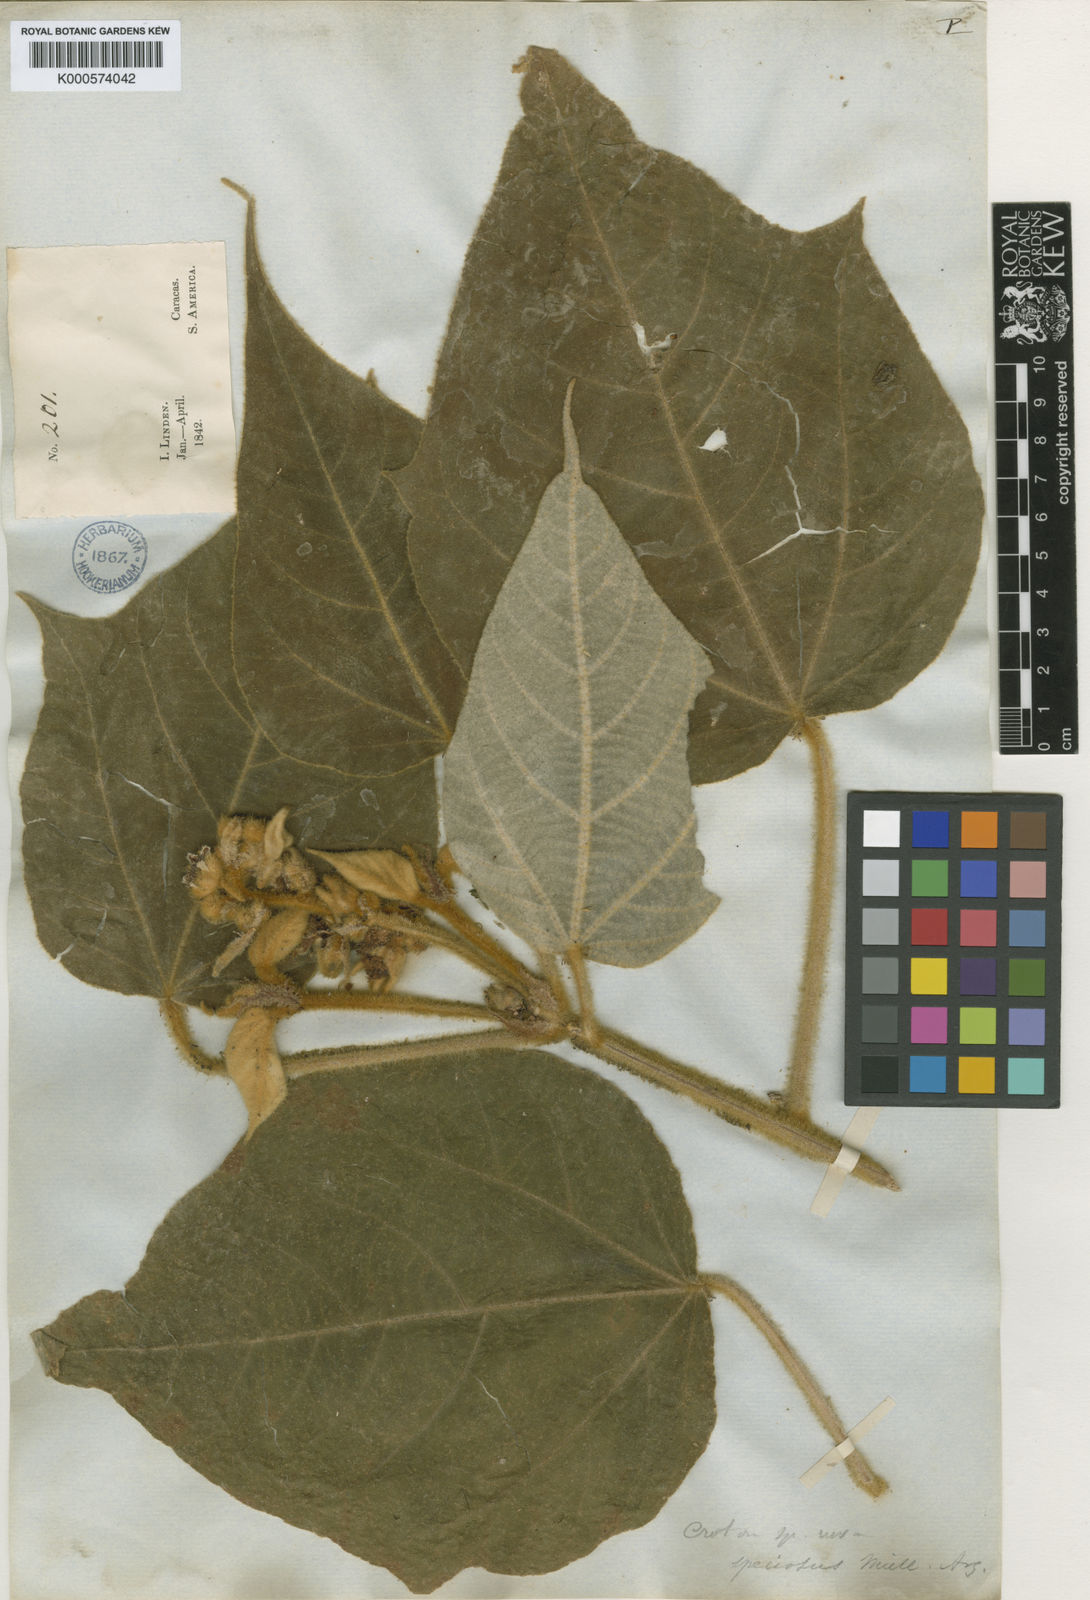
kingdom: Plantae
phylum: Tracheophyta
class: Magnoliopsida
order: Malpighiales
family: Euphorbiaceae
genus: Croton
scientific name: Croton
